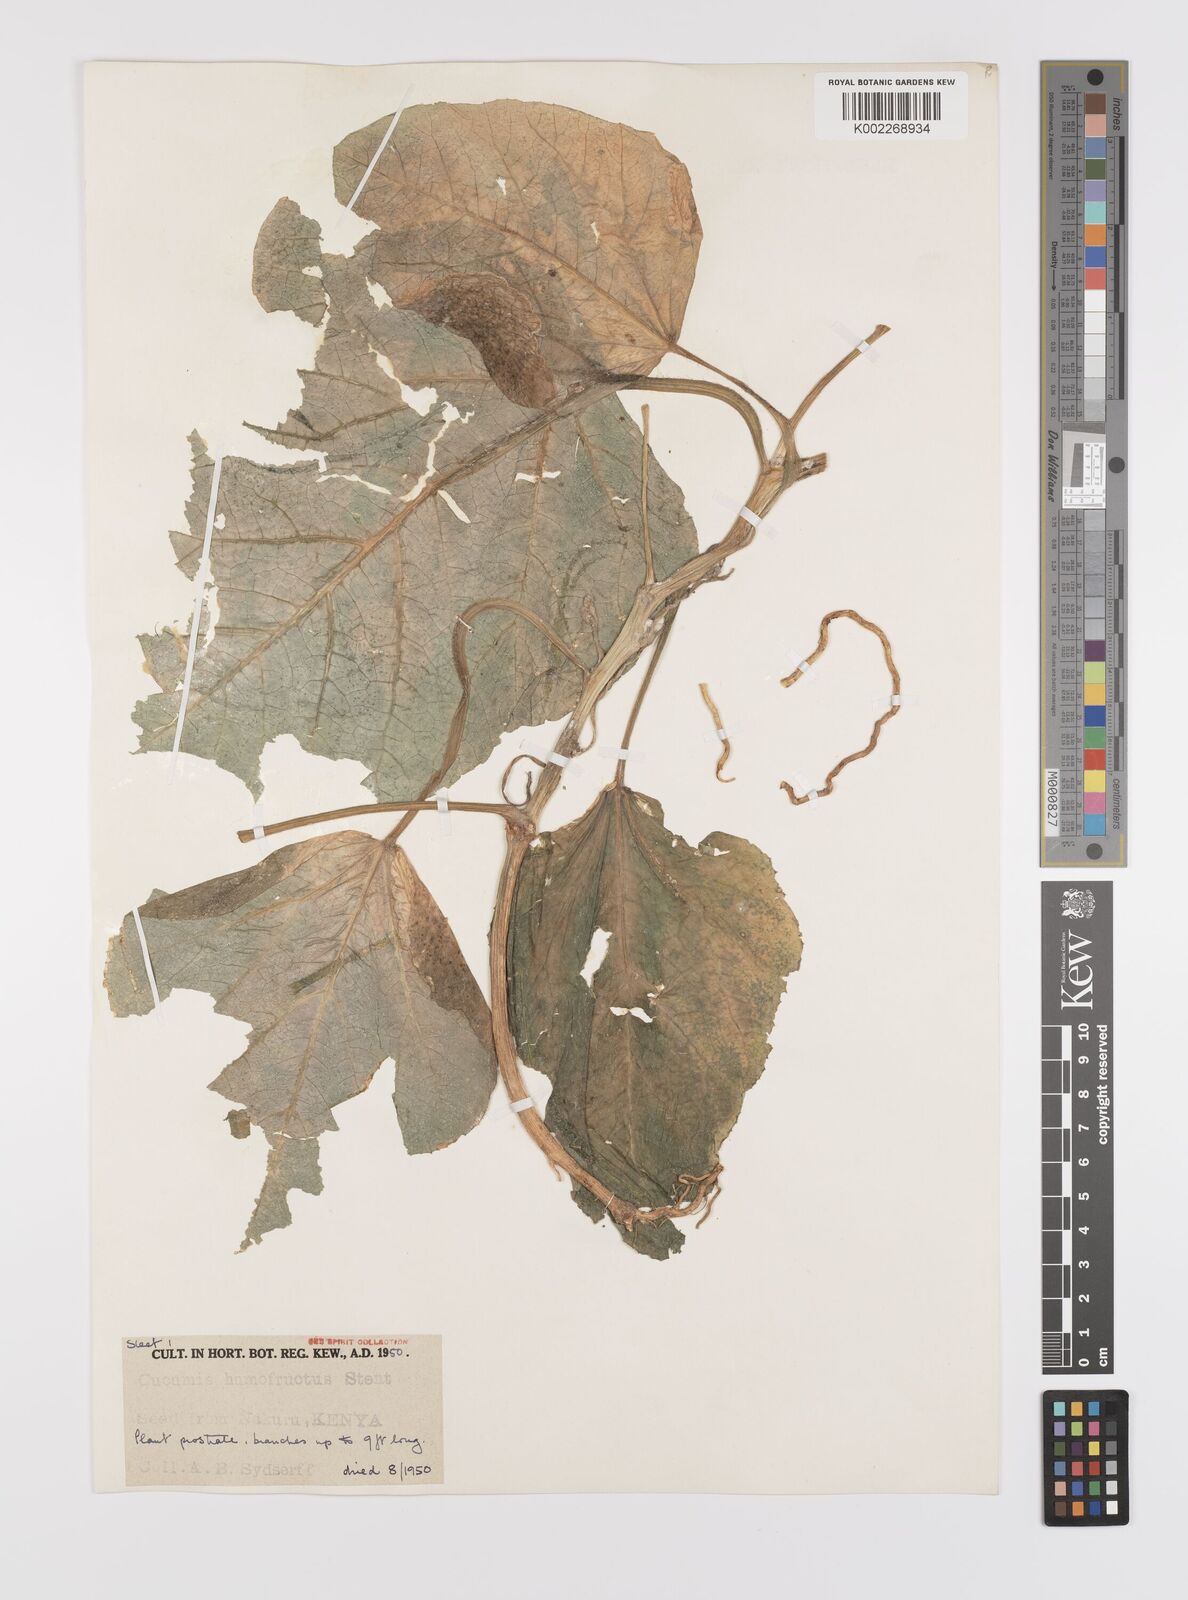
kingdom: Plantae
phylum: Tracheophyta
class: Magnoliopsida
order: Cucurbitales
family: Cucurbitaceae
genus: Cucumis
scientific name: Cucumis humofructus
